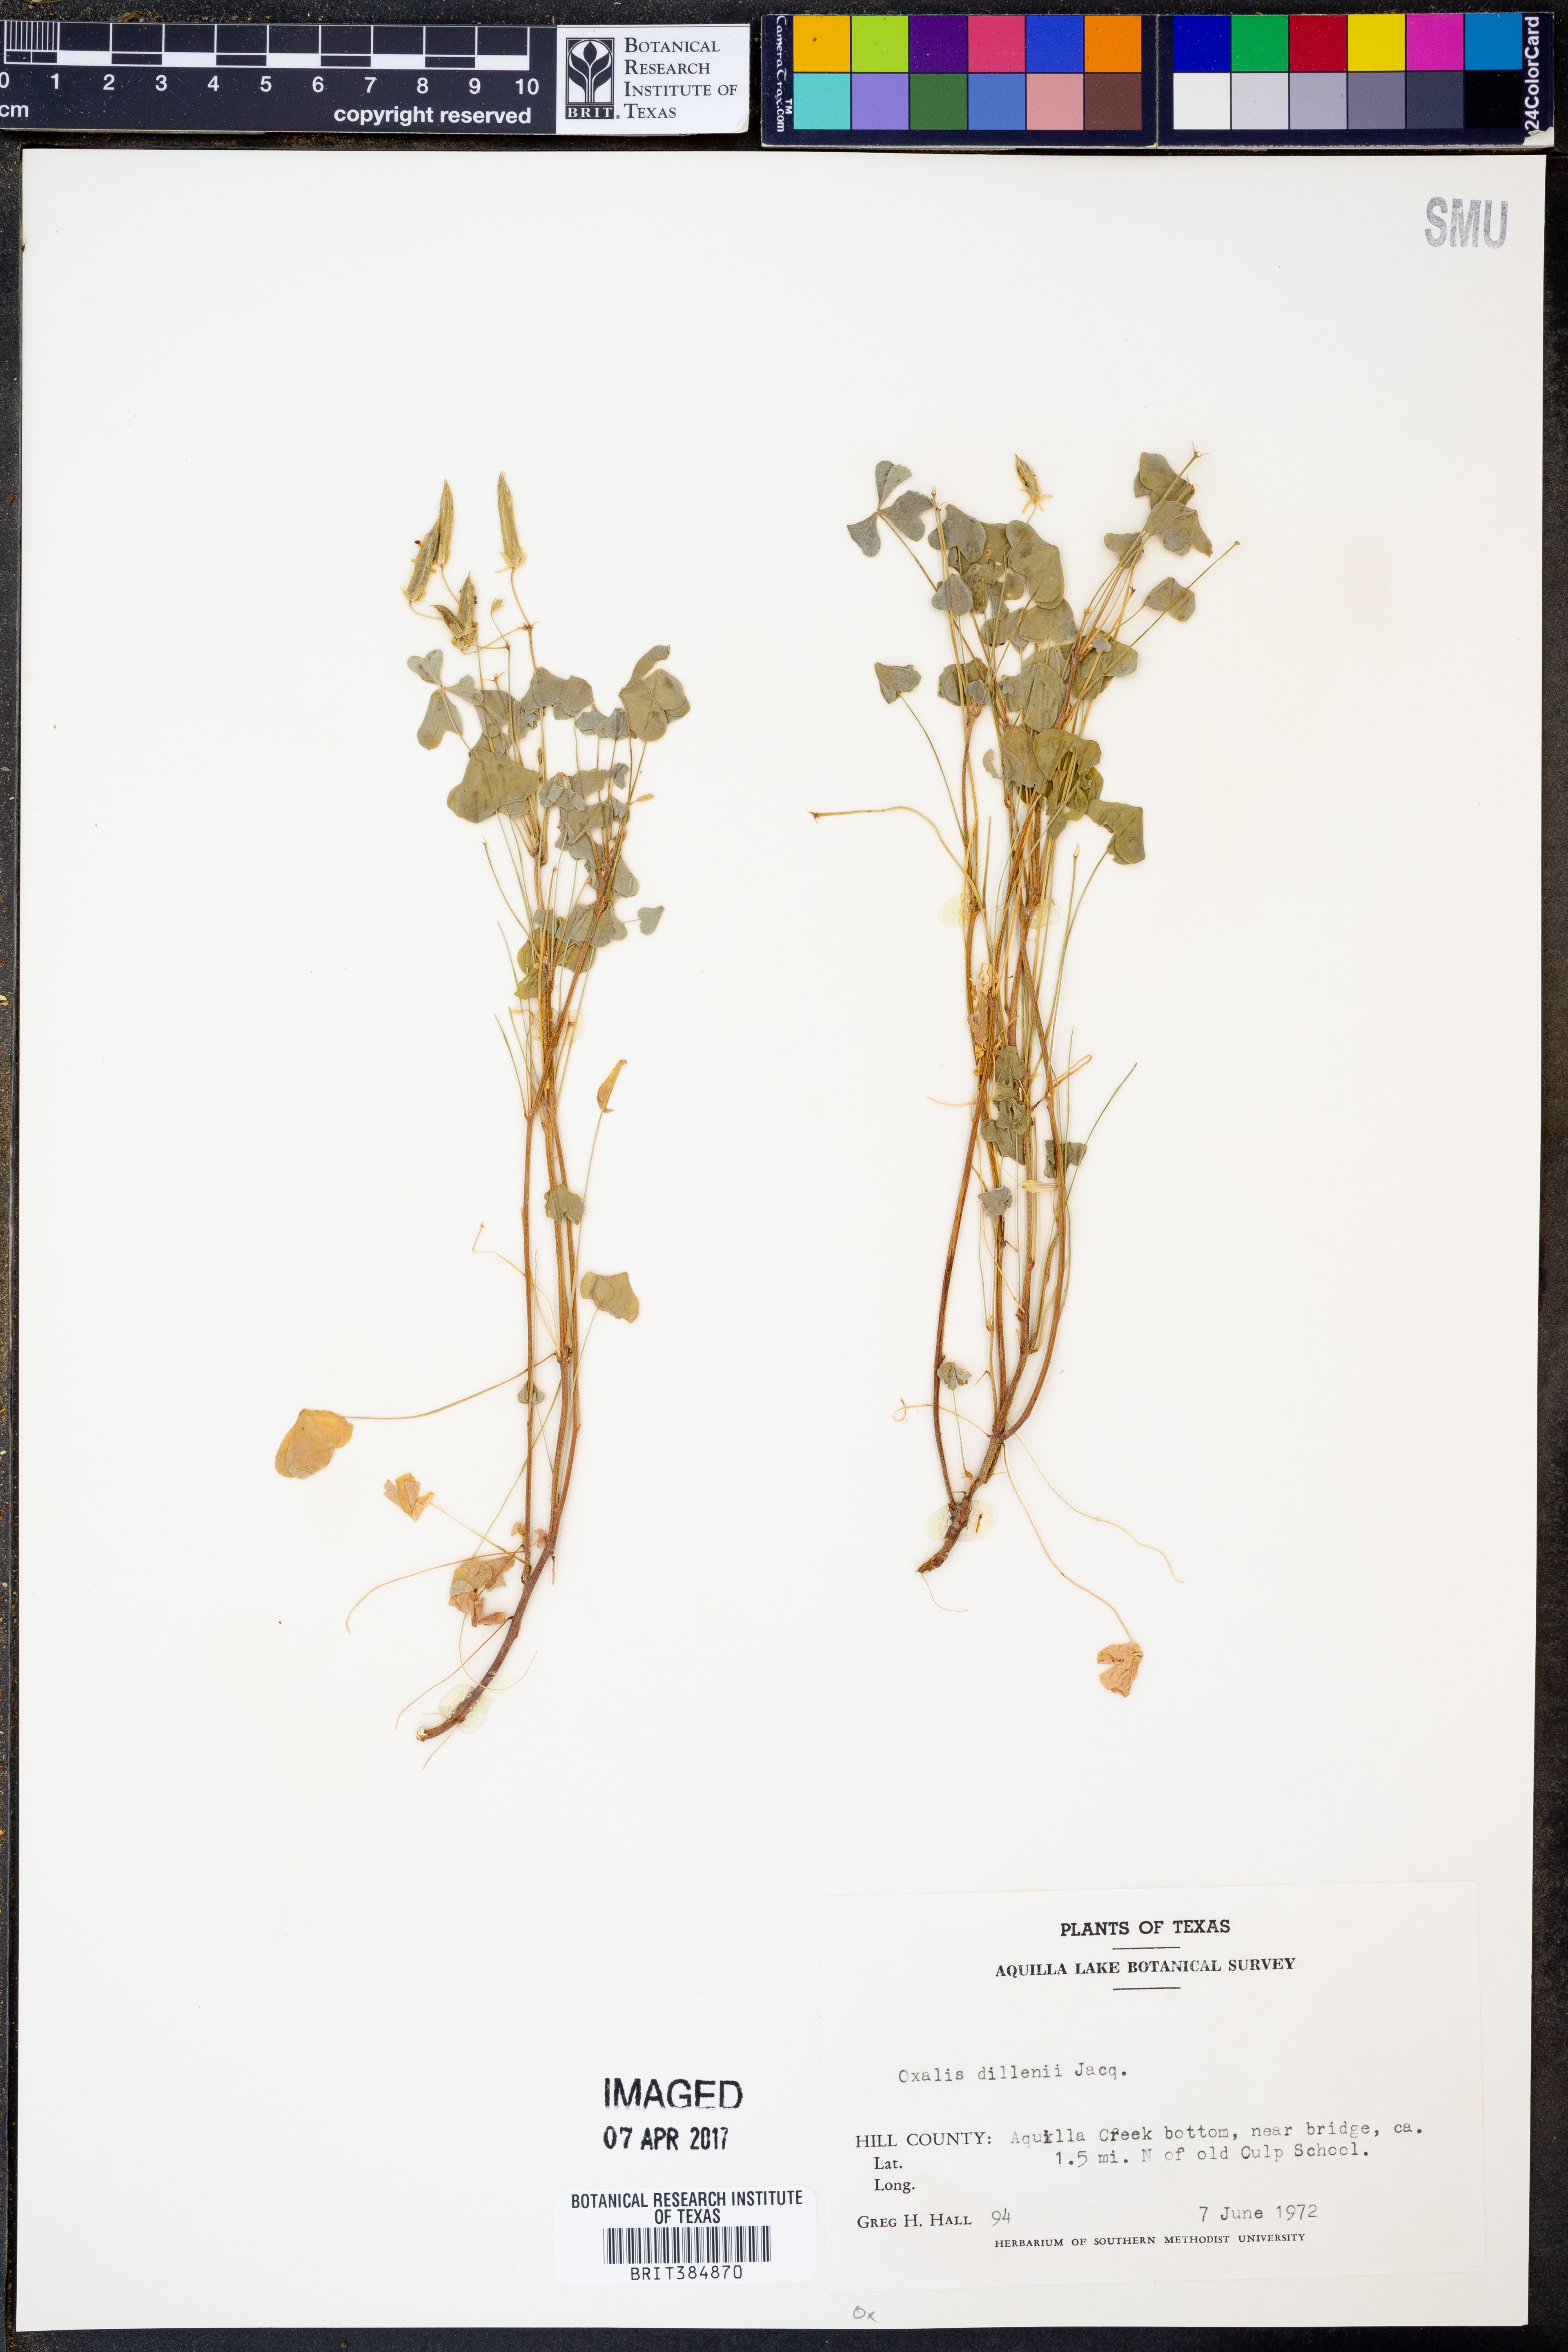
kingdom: Plantae
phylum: Tracheophyta
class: Magnoliopsida
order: Oxalidales
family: Oxalidaceae
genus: Oxalis
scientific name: Oxalis dillenii
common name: Sussex yellow-sorrel
